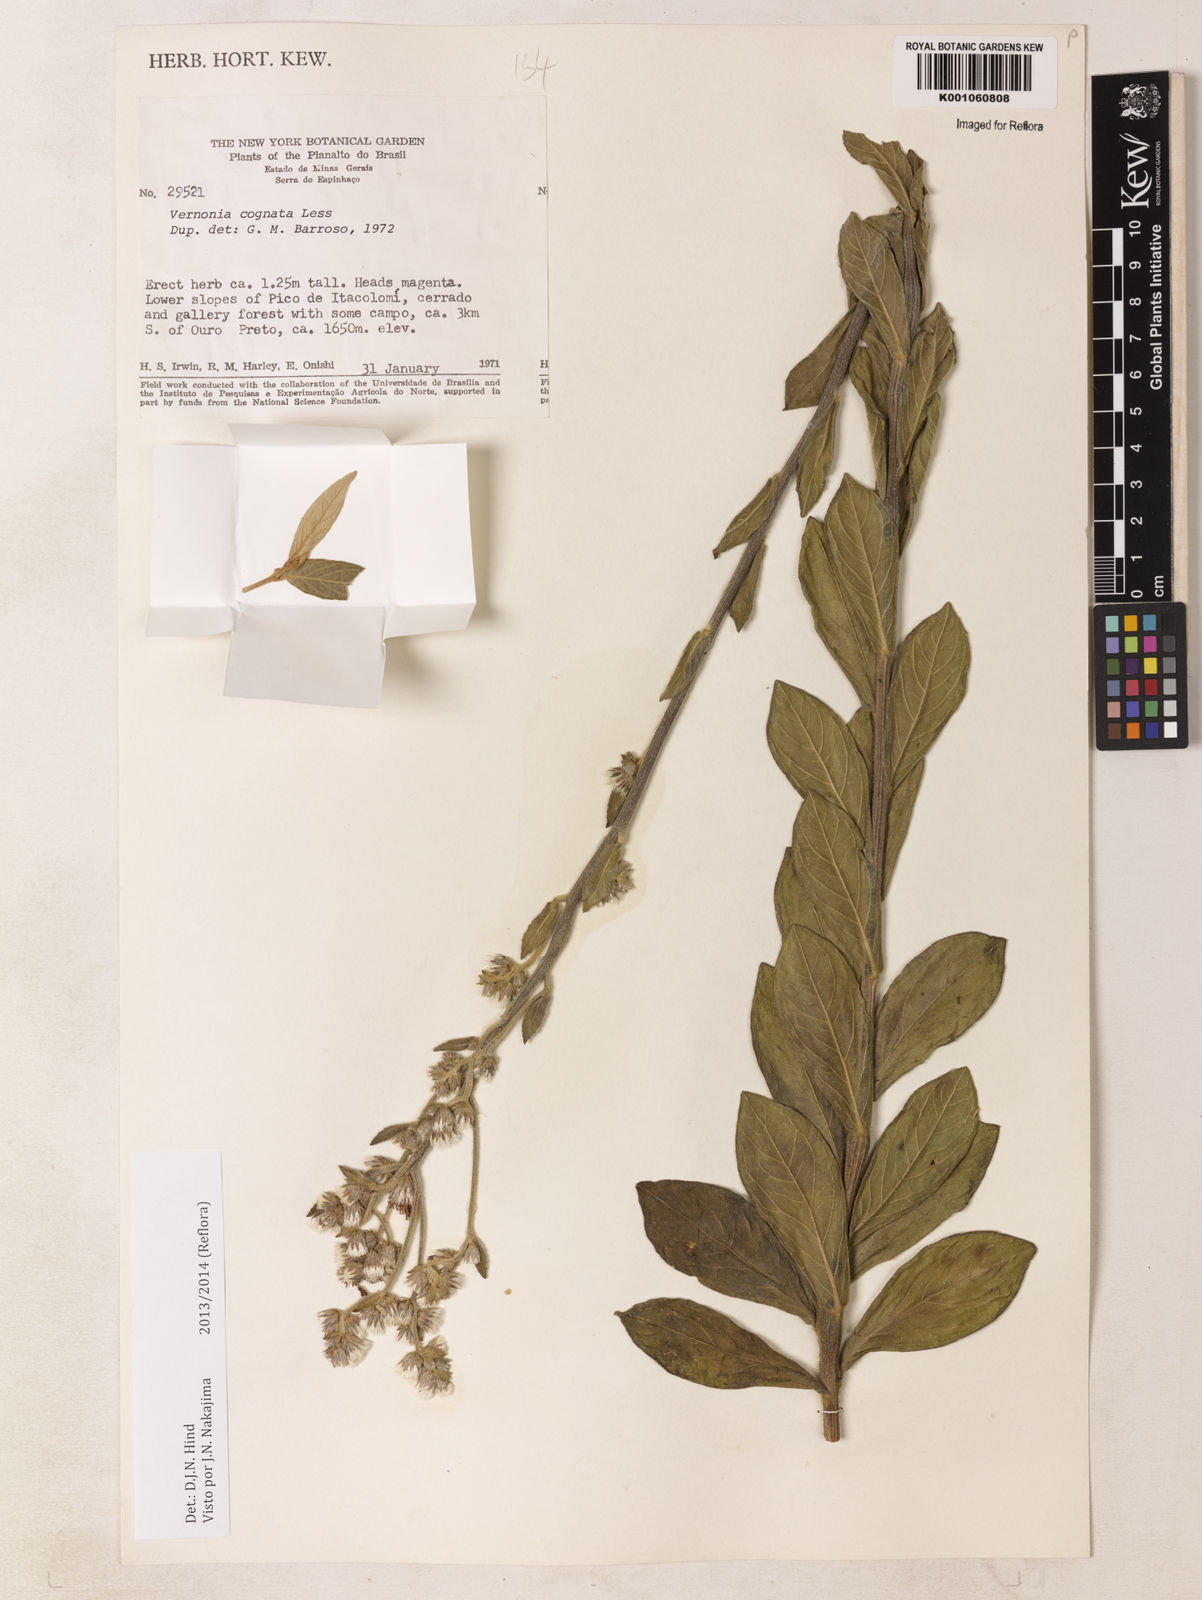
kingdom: Plantae
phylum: Tracheophyta
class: Magnoliopsida
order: Asterales
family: Asteraceae
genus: Chrysolaena
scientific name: Chrysolaena cognata
